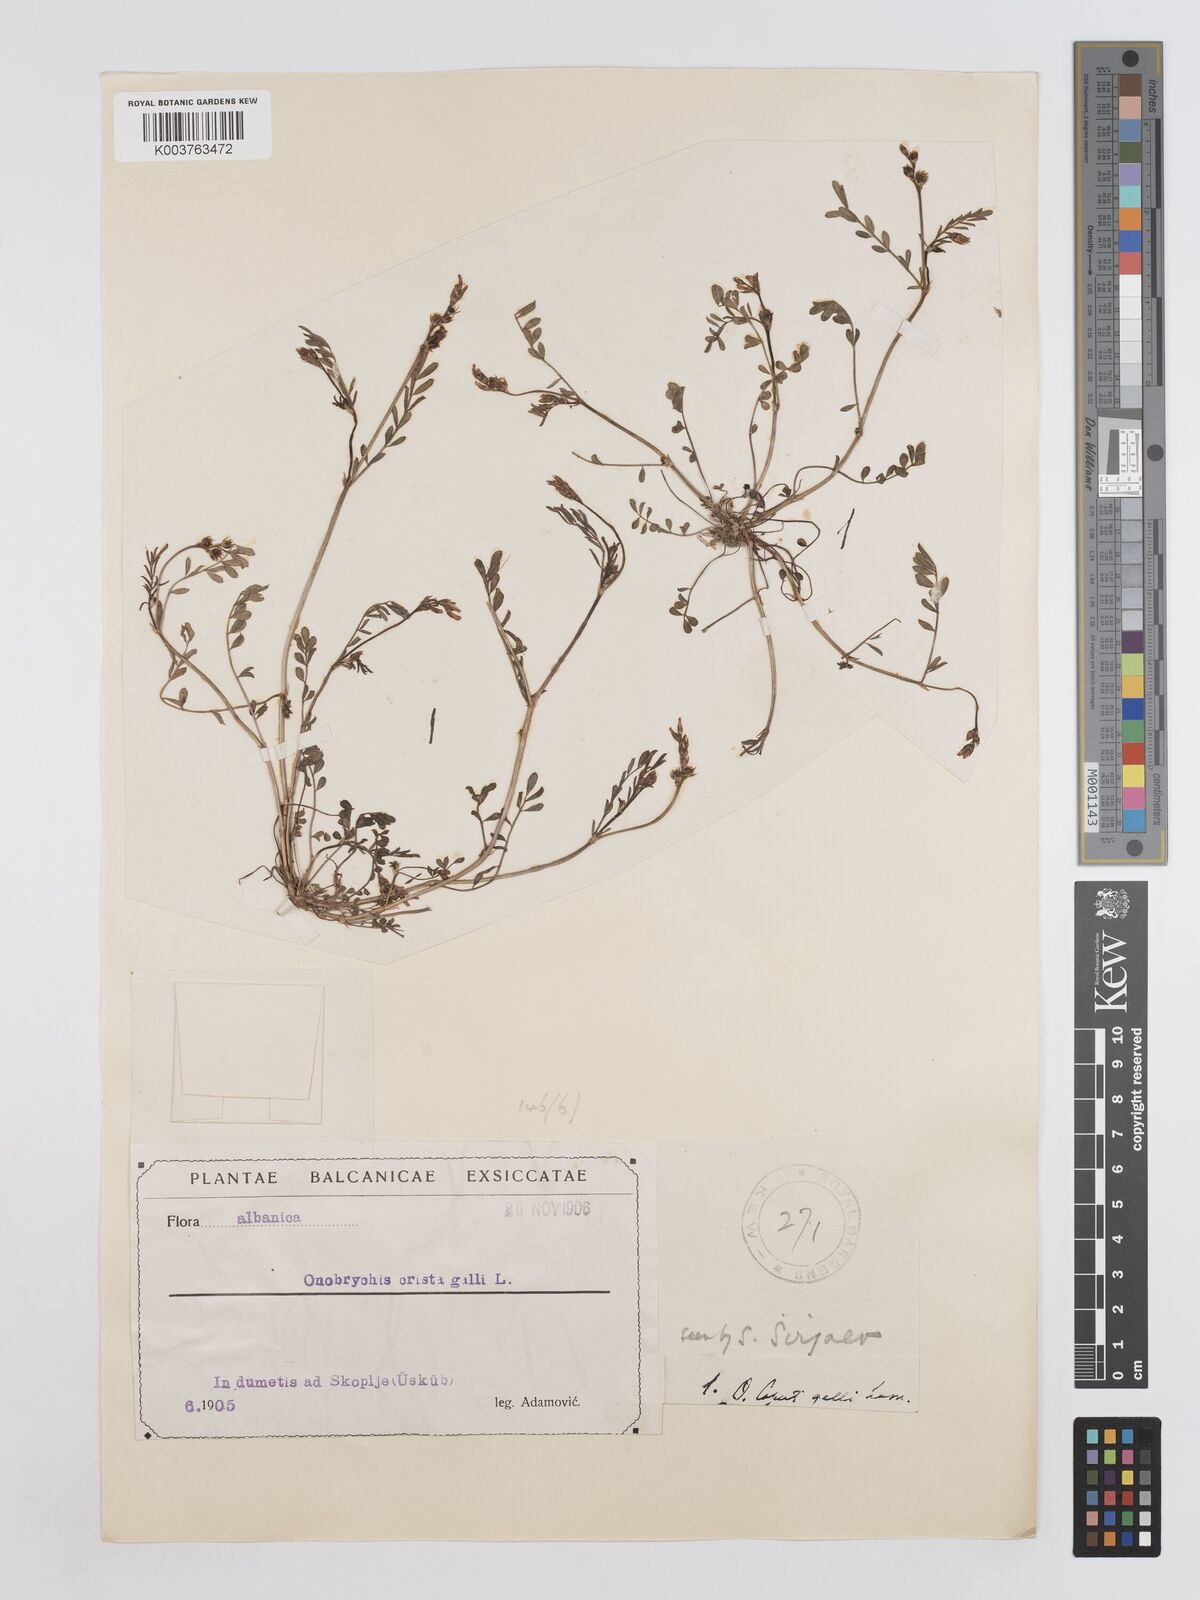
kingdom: Plantae
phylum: Tracheophyta
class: Magnoliopsida
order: Fabales
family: Fabaceae
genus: Onobrychis
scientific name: Onobrychis caput-galli
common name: Cockscomb sainfoin
